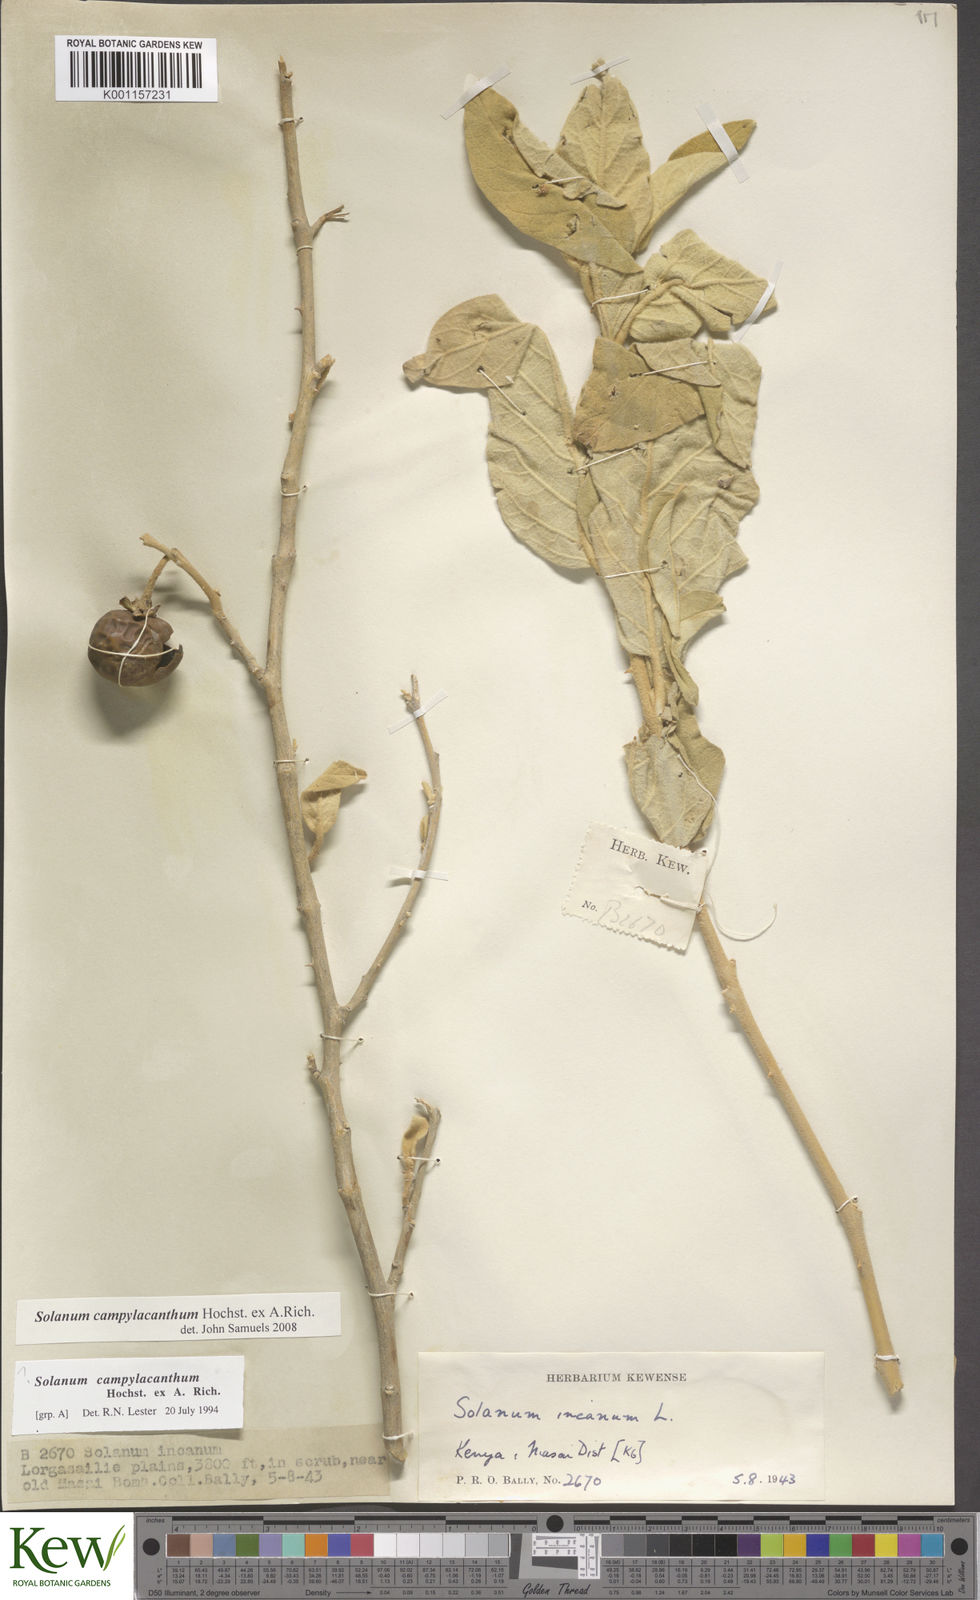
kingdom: Plantae
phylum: Tracheophyta
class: Magnoliopsida
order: Solanales
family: Solanaceae
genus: Solanum
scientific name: Solanum campylacanthum
